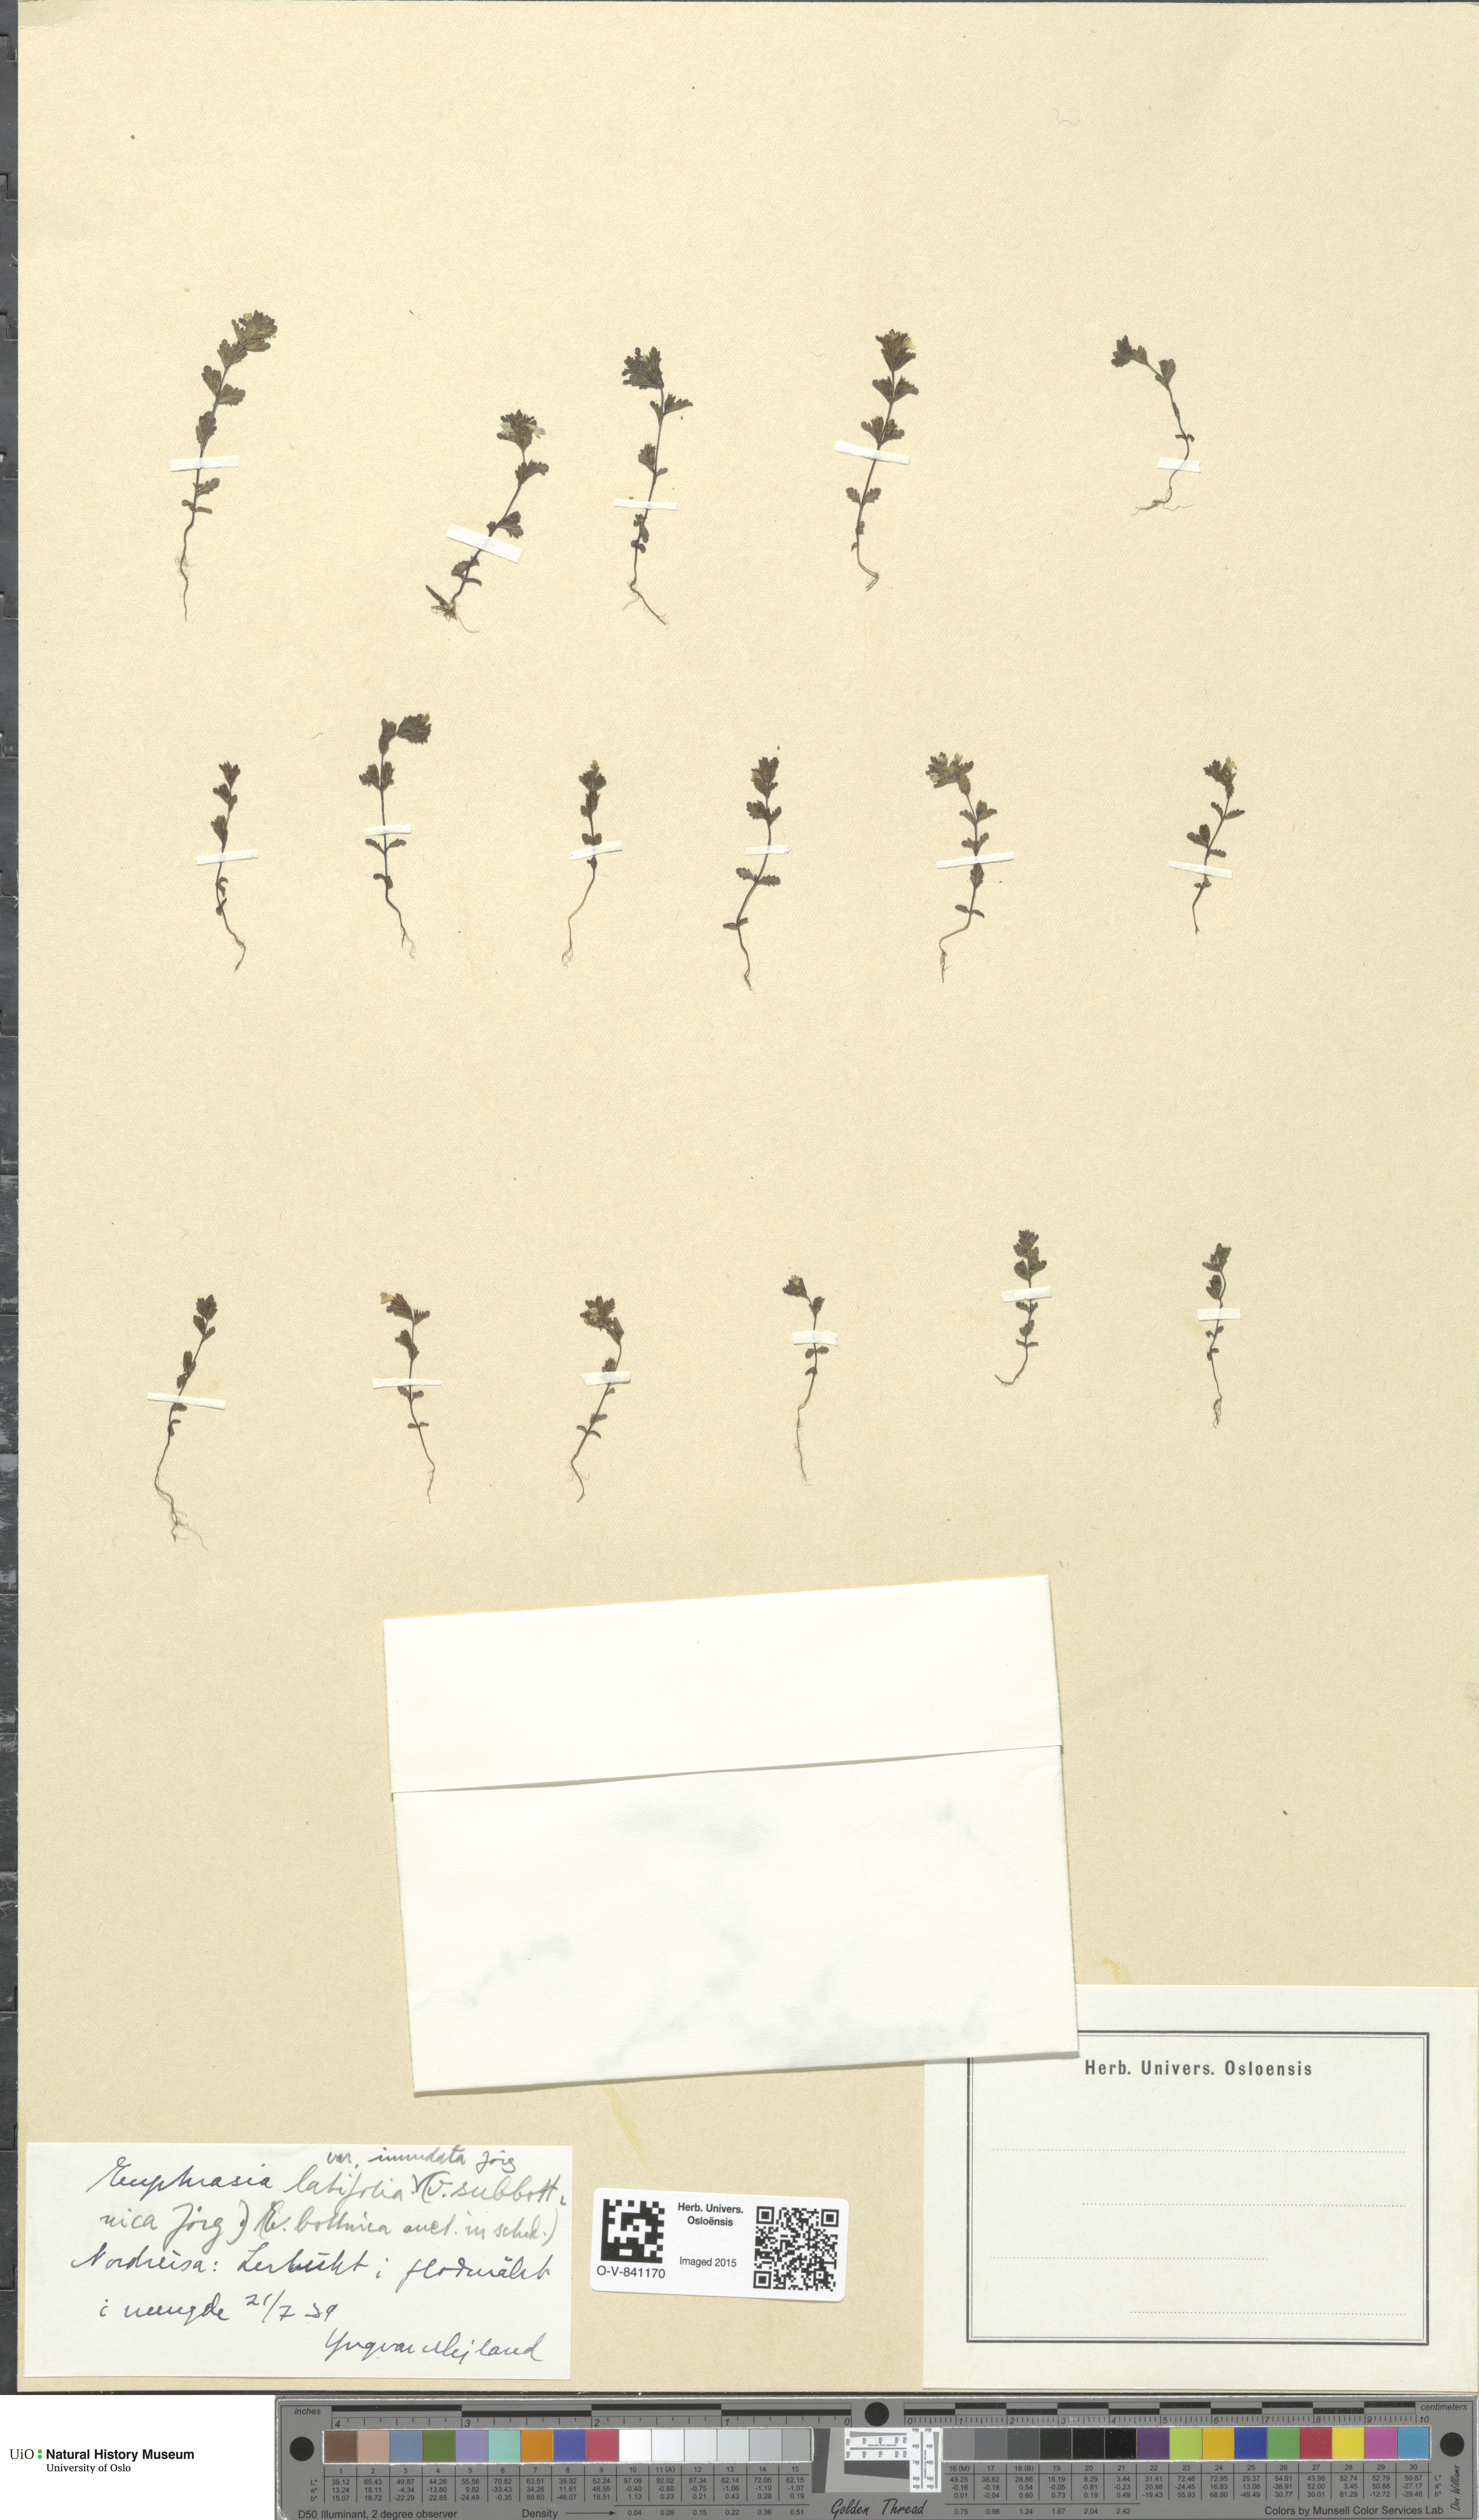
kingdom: Plantae
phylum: Tracheophyta
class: Magnoliopsida
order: Lamiales
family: Orobanchaceae
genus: Euphrasia
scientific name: Euphrasia wettsteinii
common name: Wettstein's eyebright
